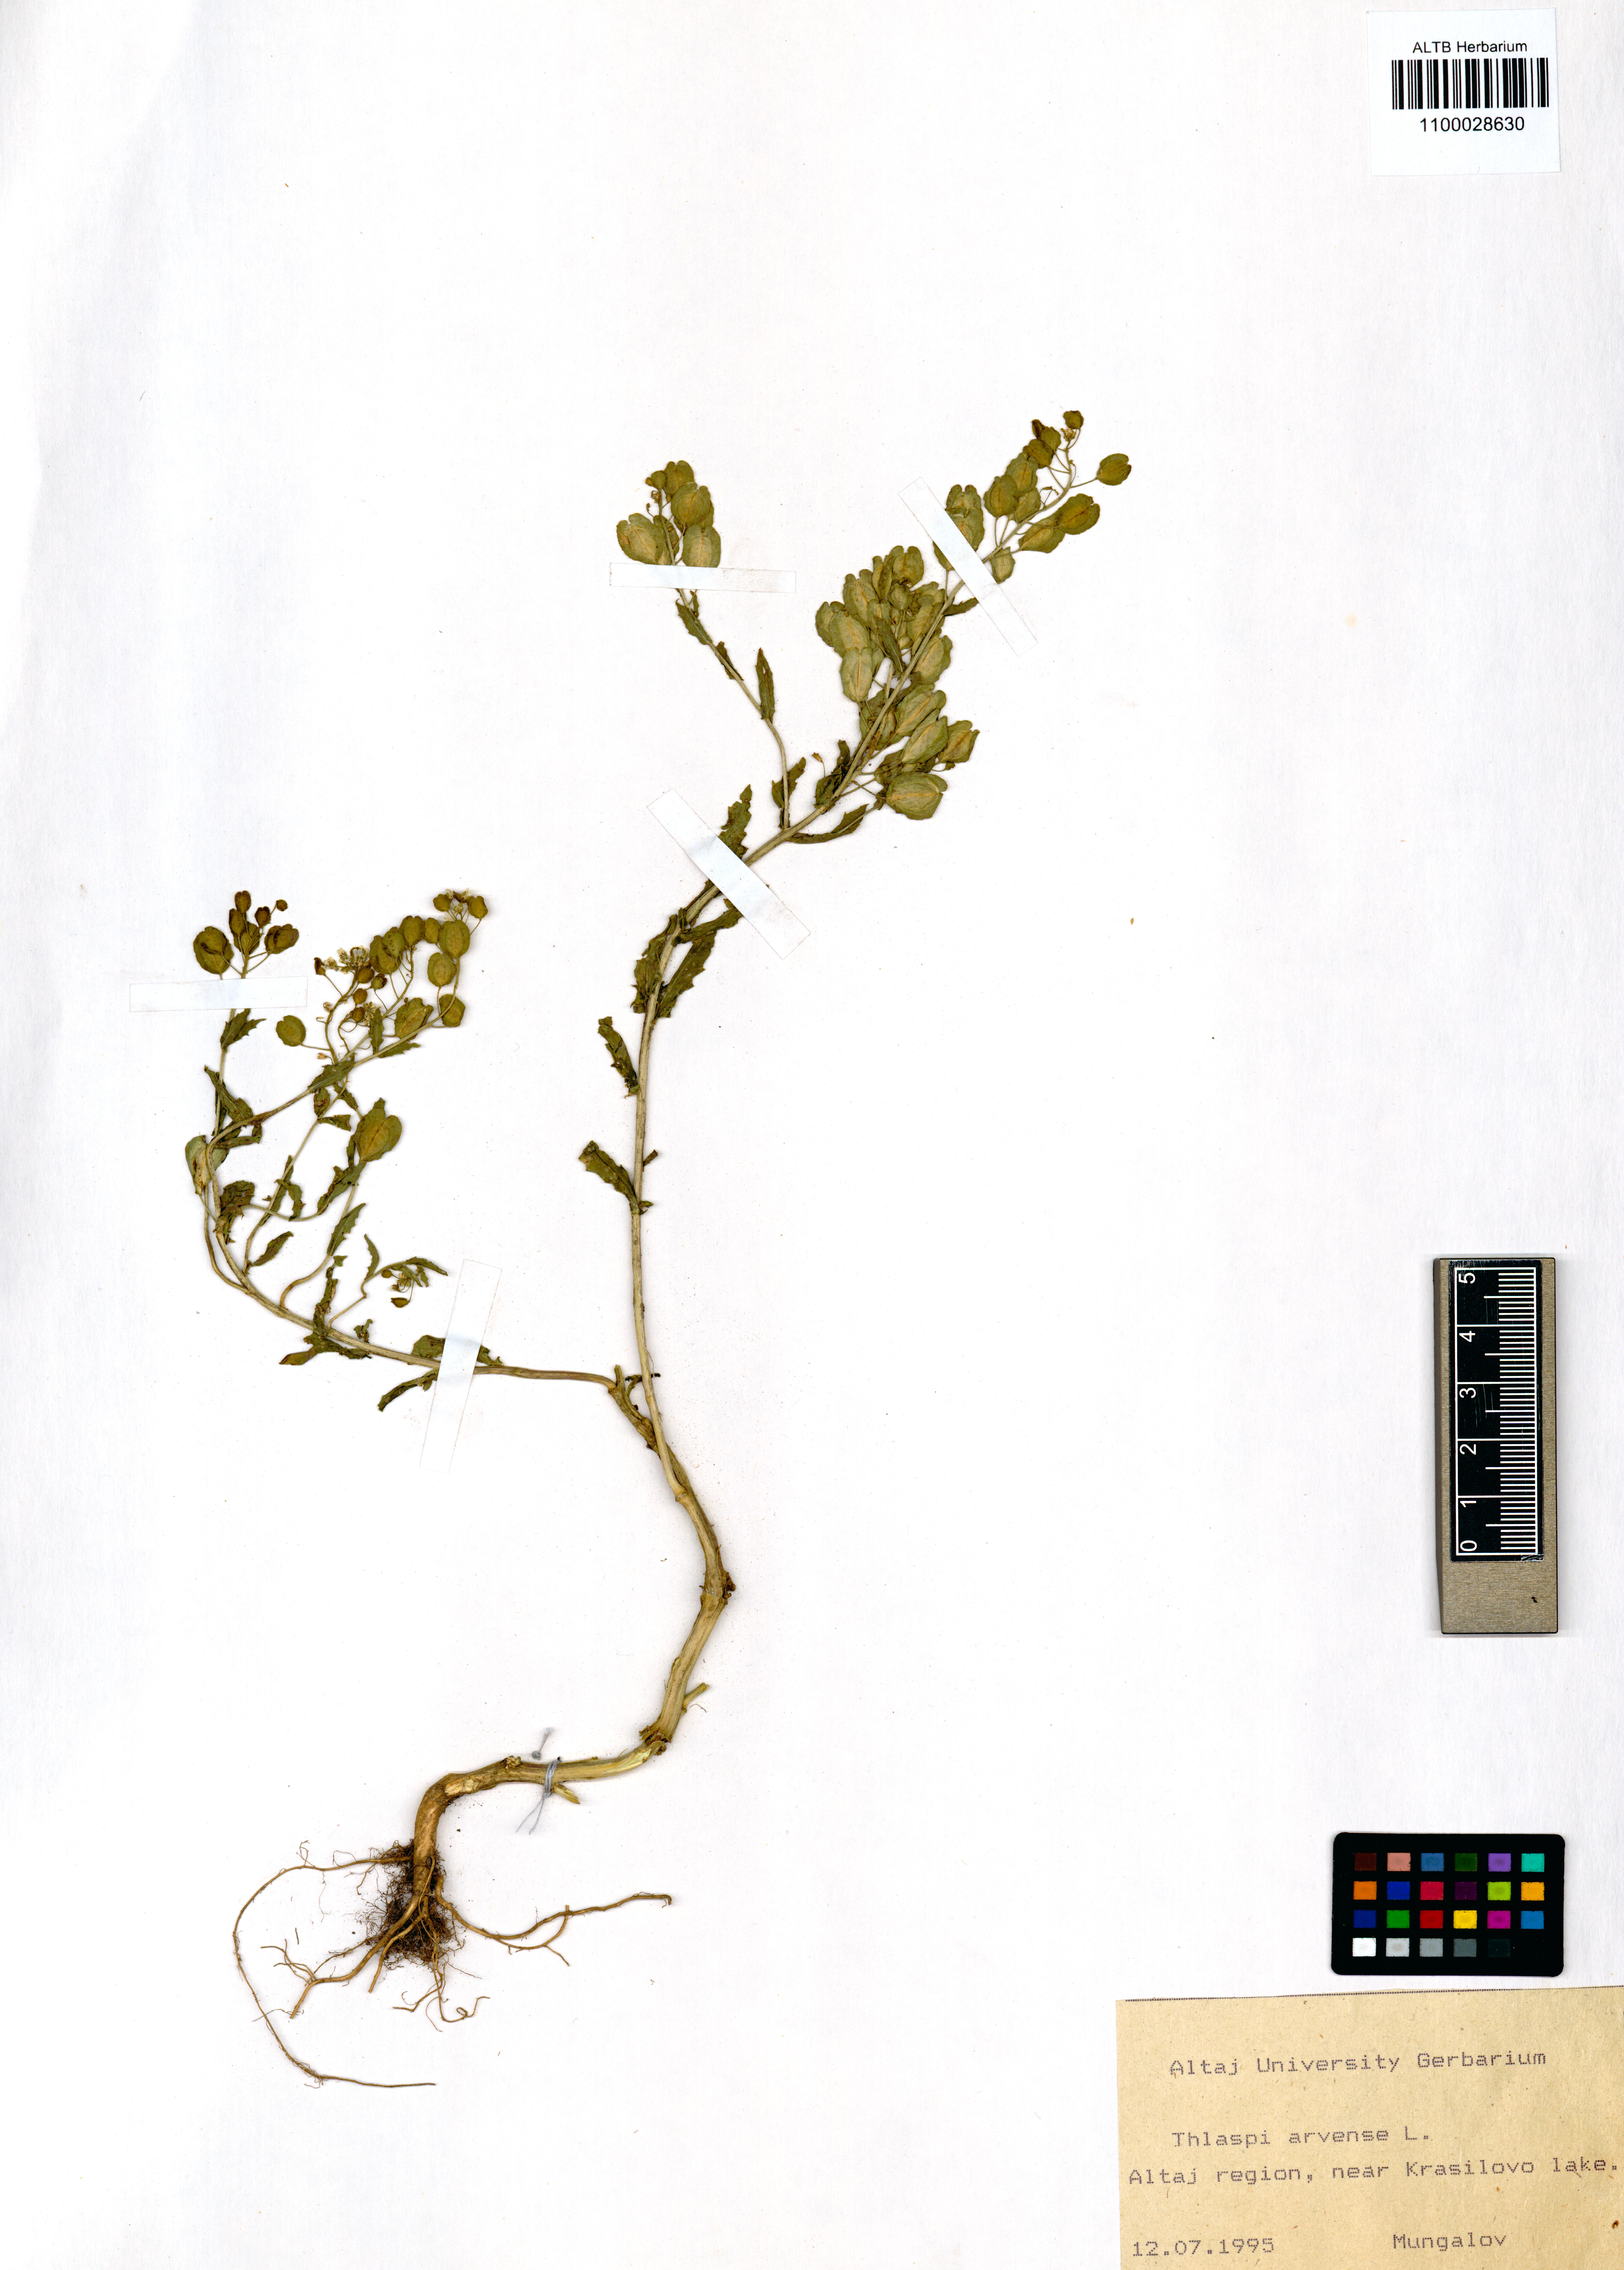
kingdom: Plantae
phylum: Tracheophyta
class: Magnoliopsida
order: Brassicales
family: Brassicaceae
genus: Thlaspi
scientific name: Thlaspi arvense
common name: Field pennycress
